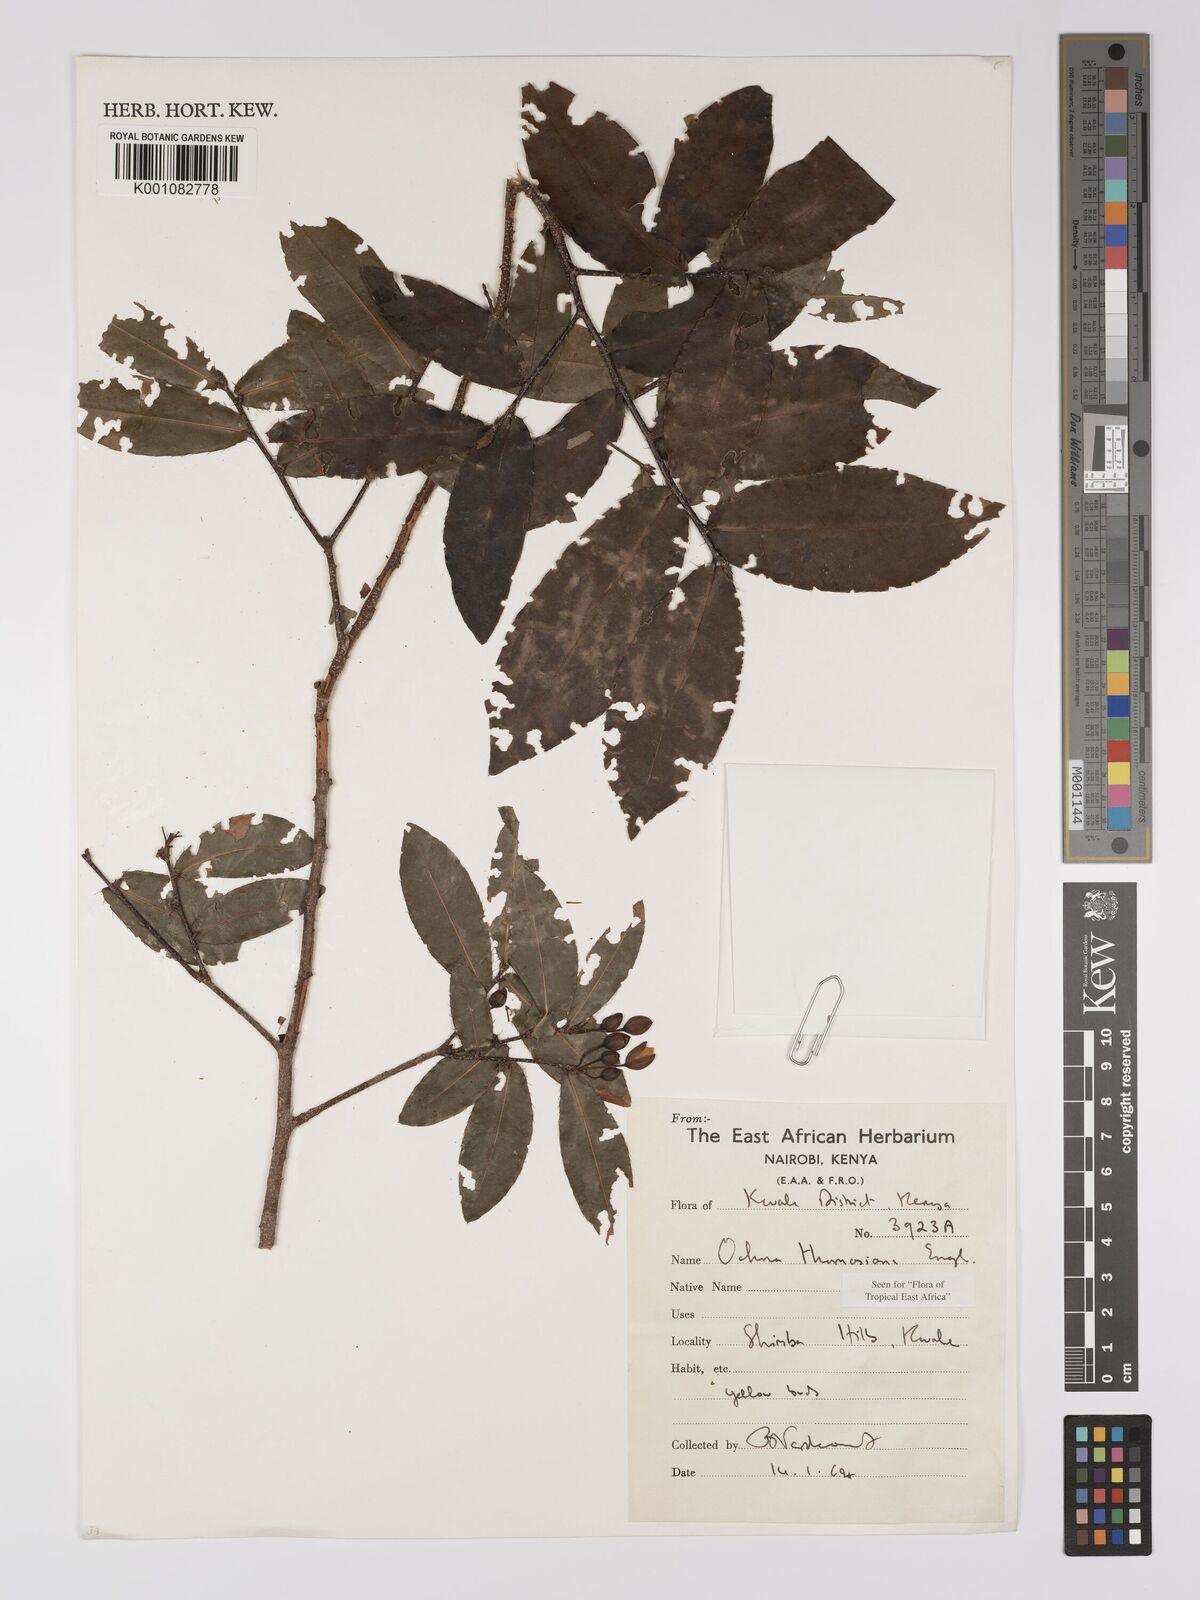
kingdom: Plantae
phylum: Tracheophyta
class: Magnoliopsida
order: Malpighiales
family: Ochnaceae
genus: Ochna
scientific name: Ochna thomasiana
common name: Thomas' bird's-eye bush
